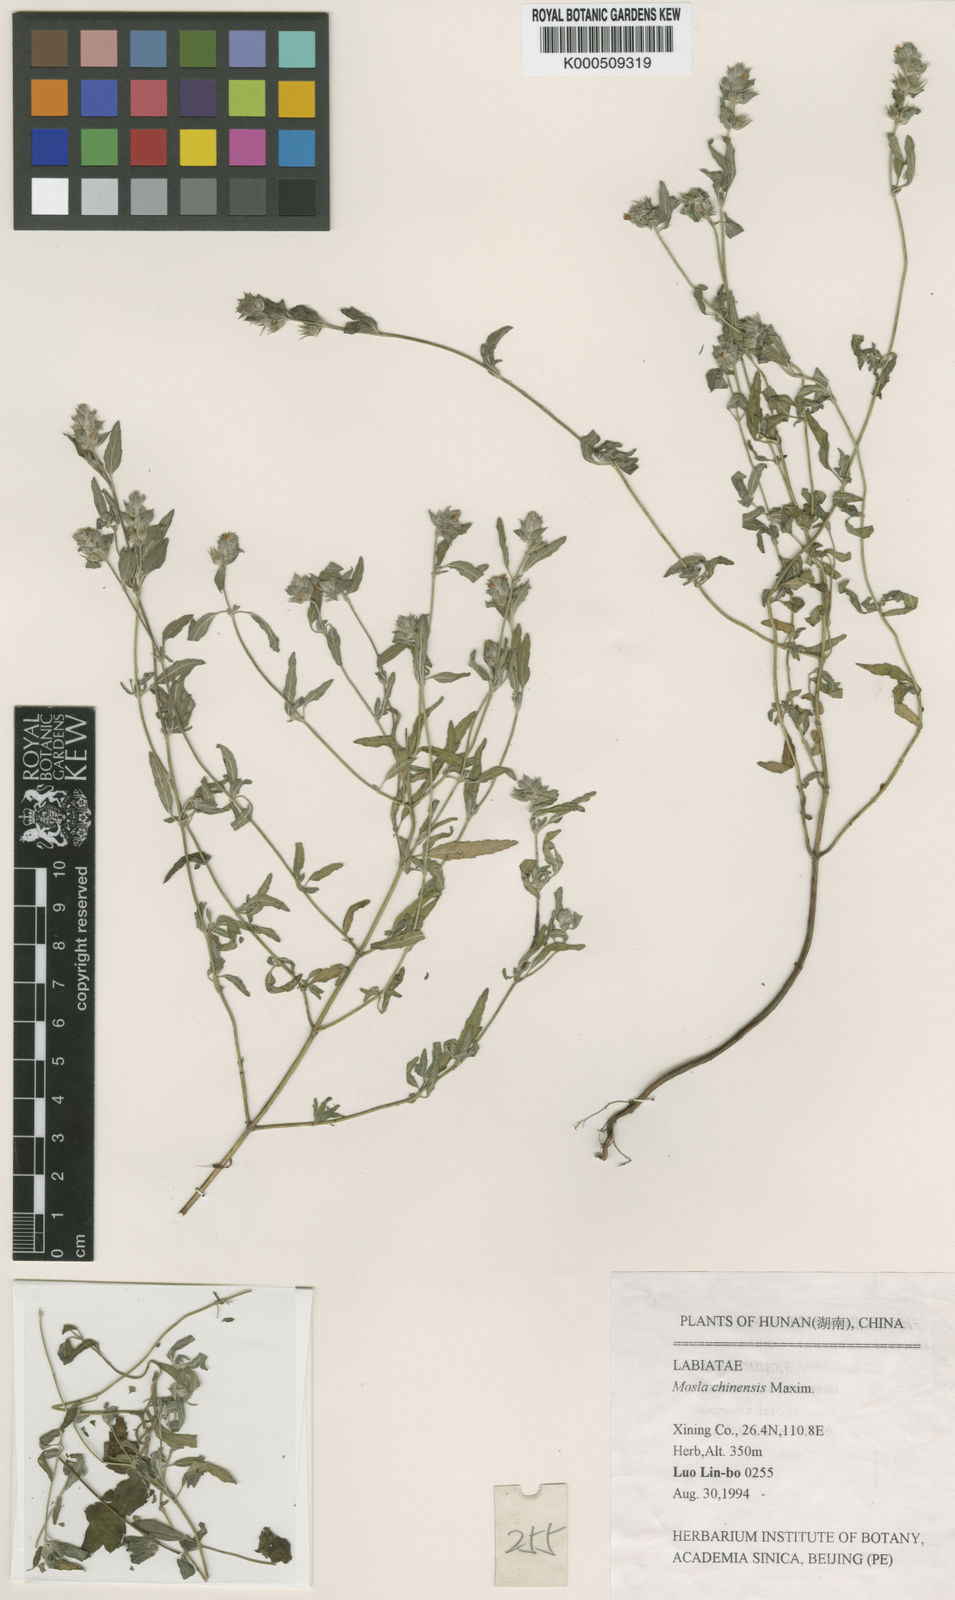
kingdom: Plantae
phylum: Tracheophyta
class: Magnoliopsida
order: Lamiales
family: Lamiaceae
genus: Mosla
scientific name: Mosla chinensis
